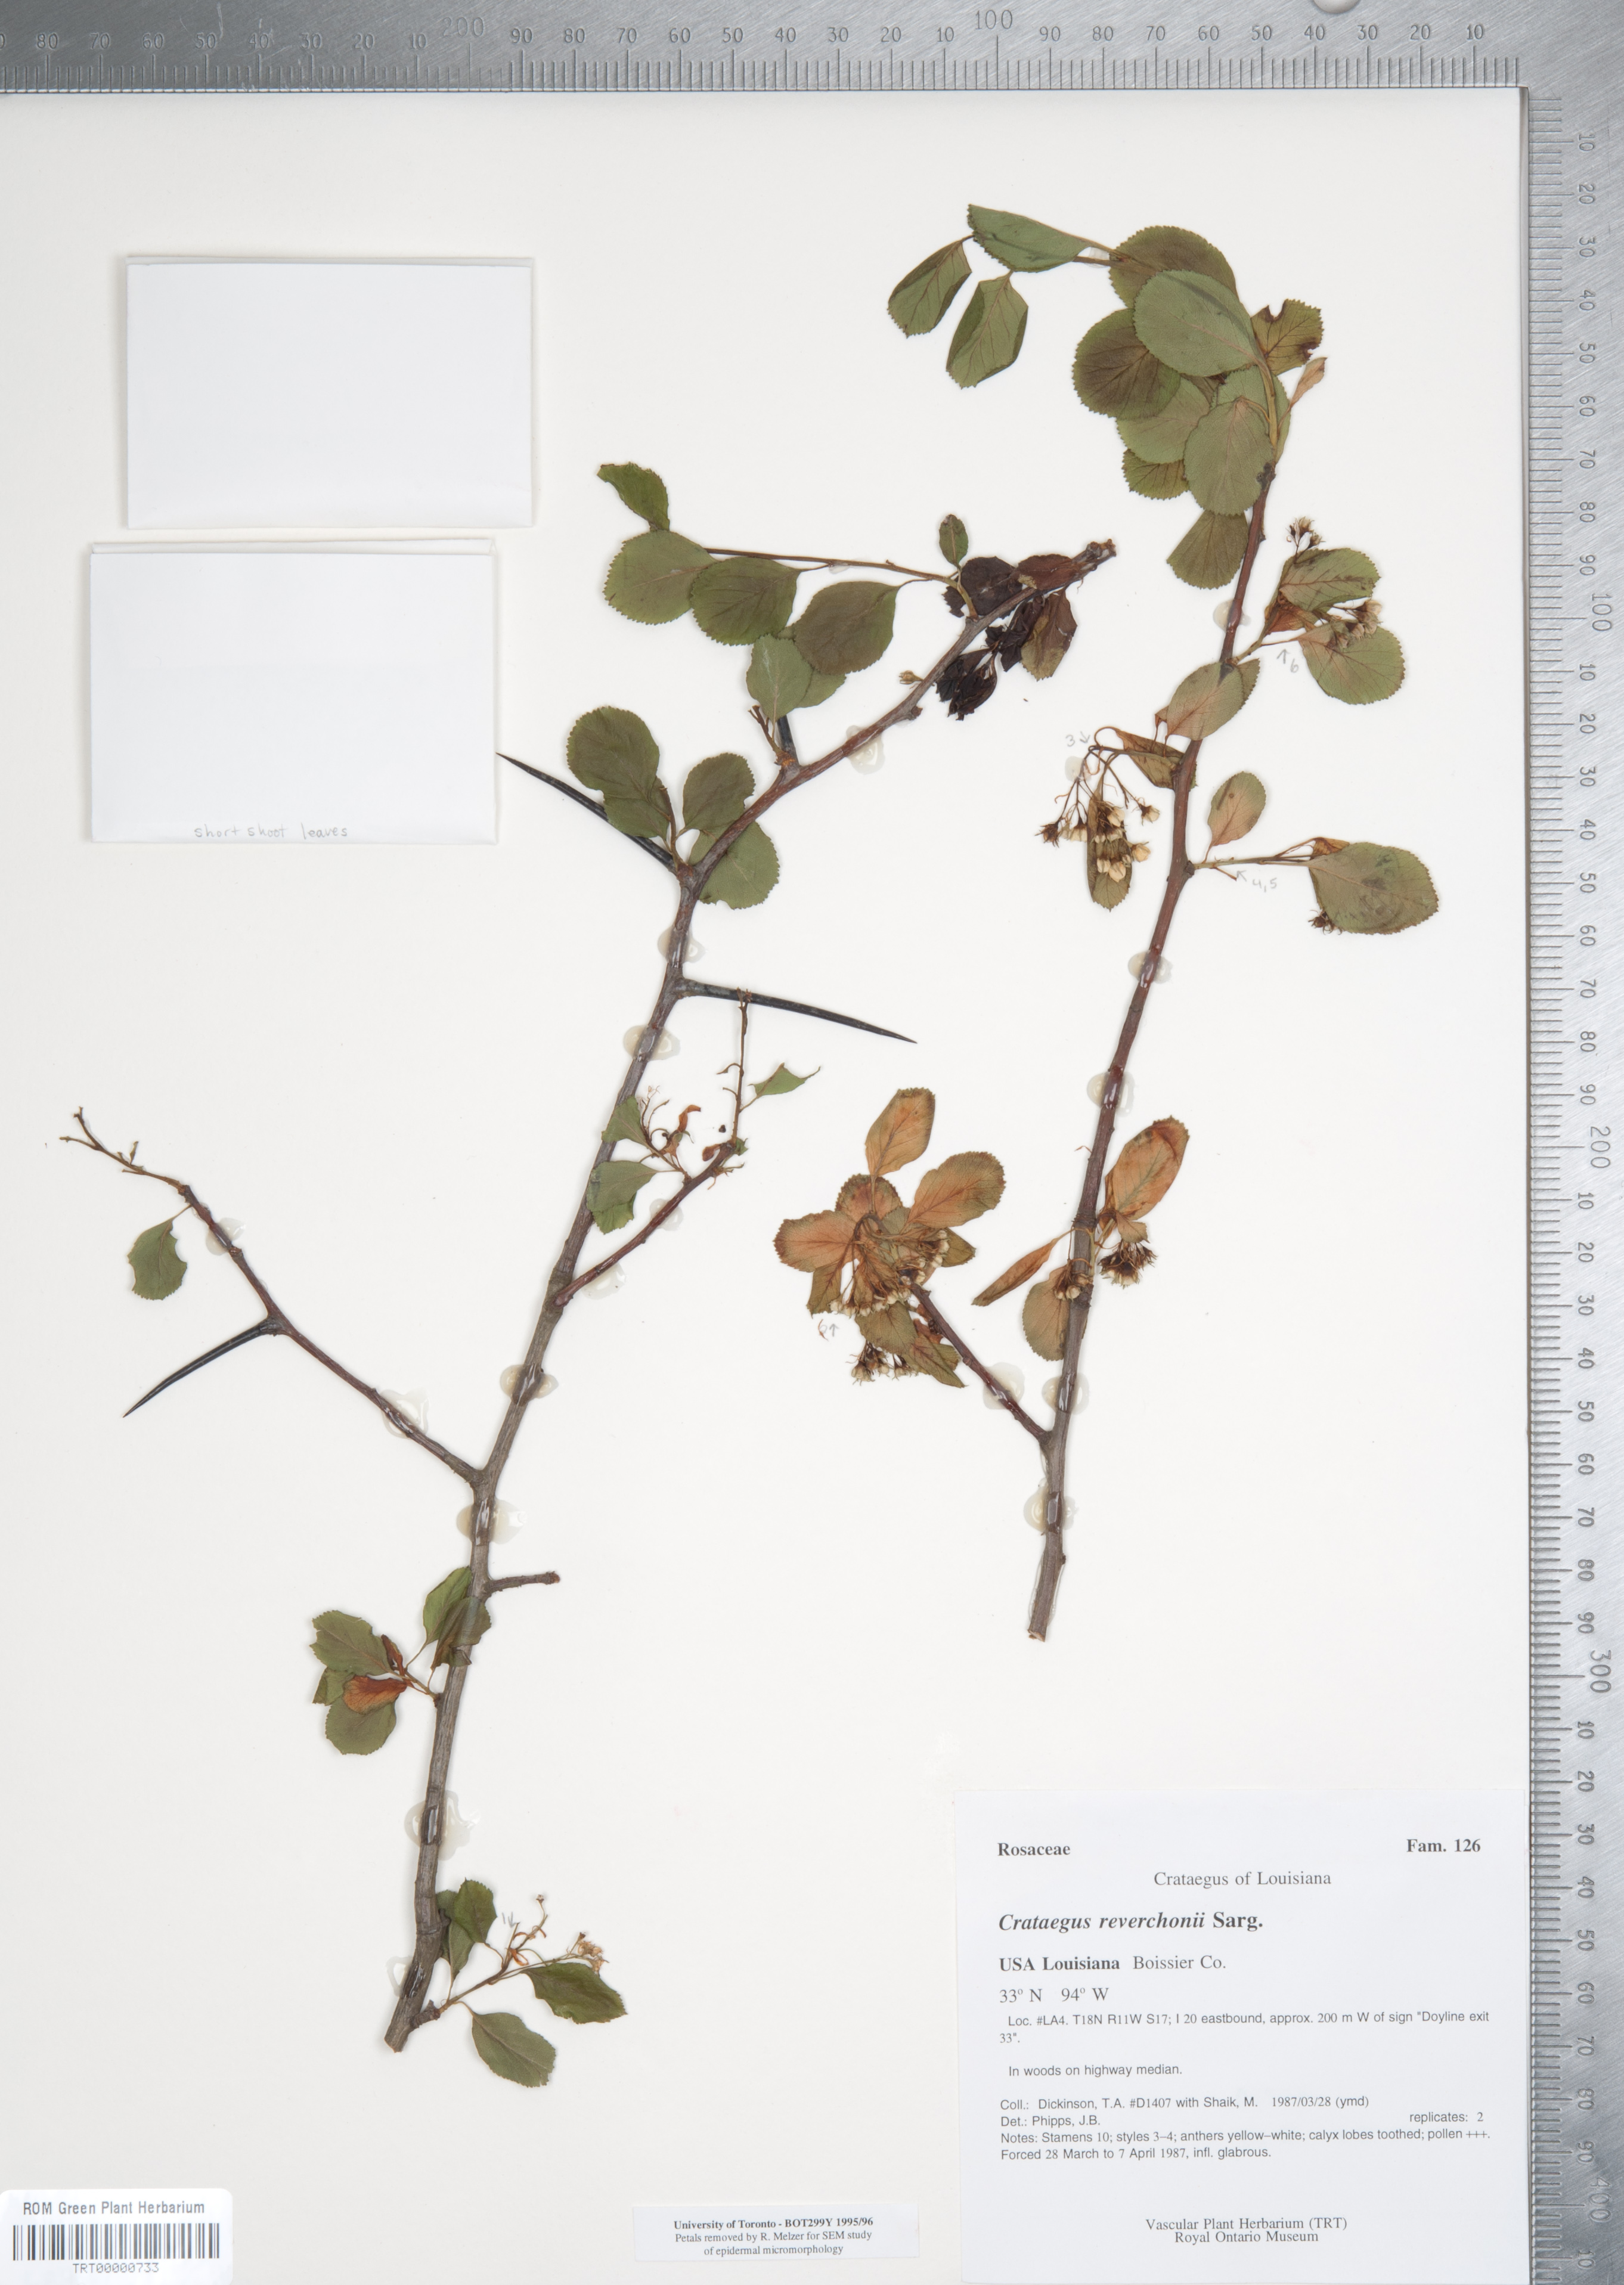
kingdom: Plantae
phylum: Tracheophyta
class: Magnoliopsida
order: Rosales
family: Rosaceae
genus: Crataegus
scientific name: Crataegus reverchonii
